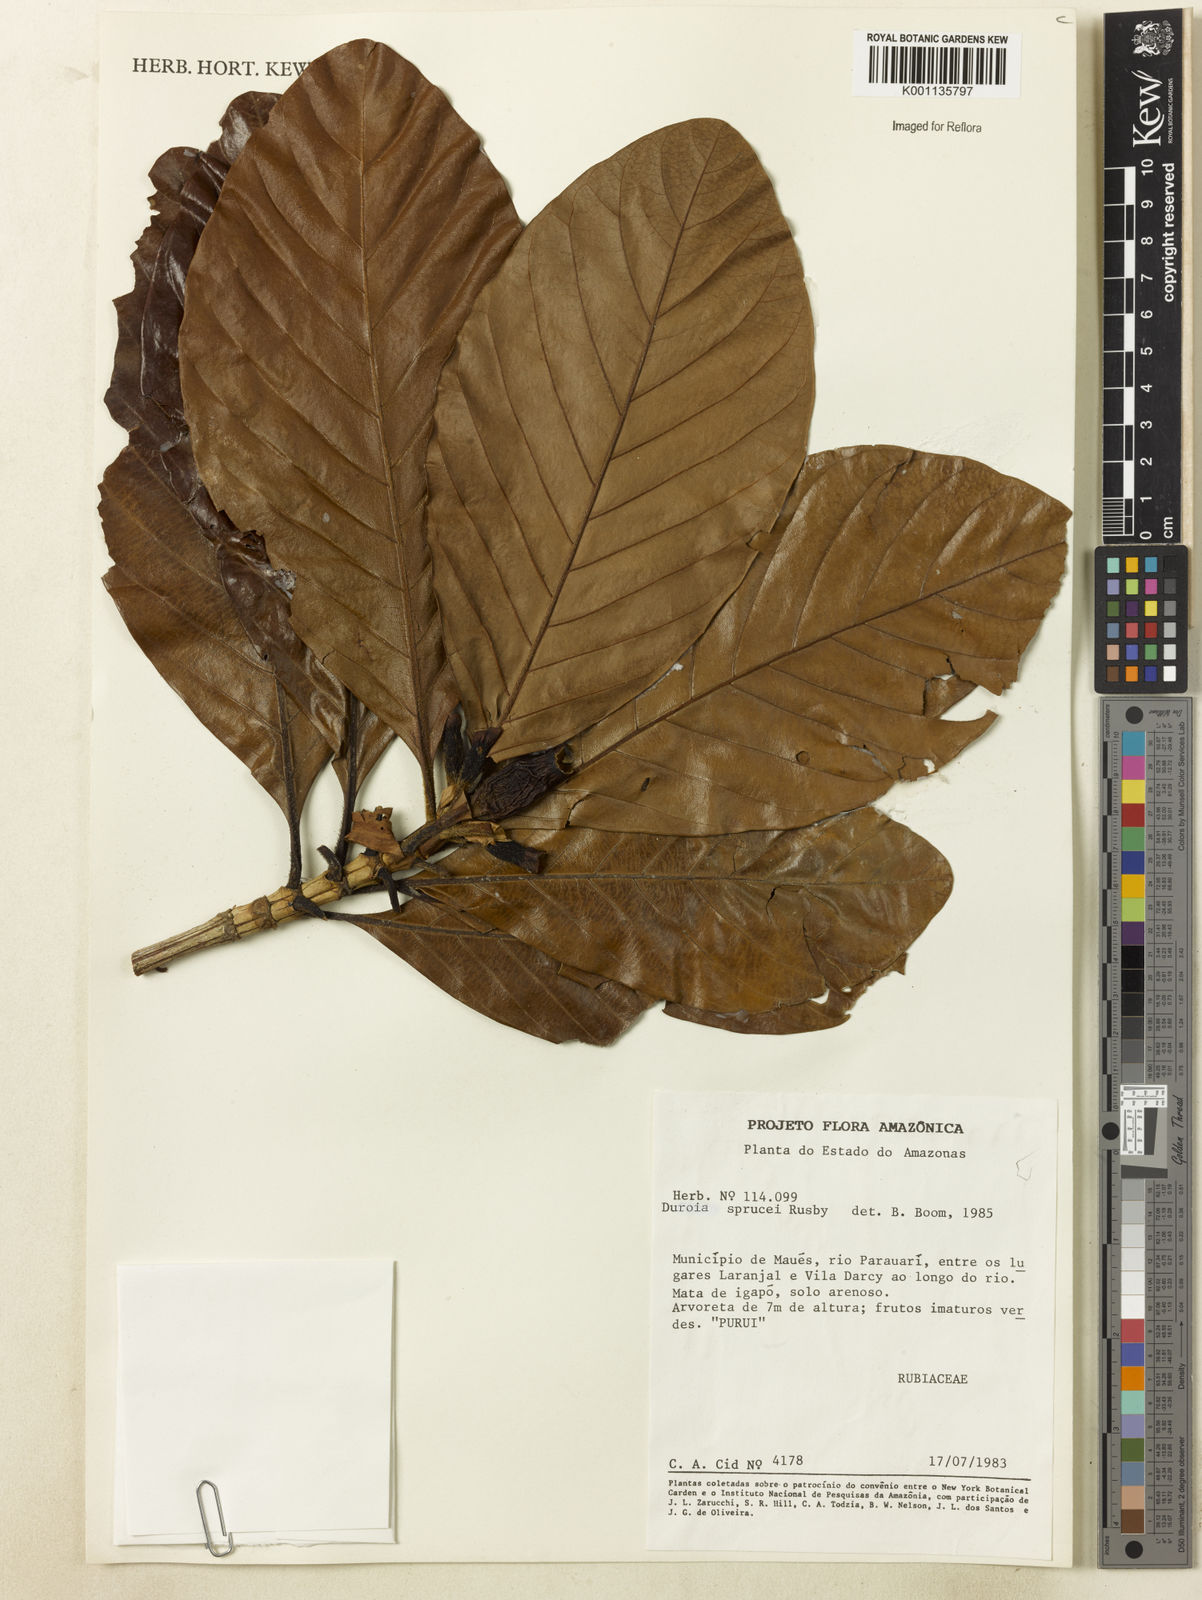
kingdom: Plantae
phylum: Tracheophyta
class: Magnoliopsida
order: Gentianales
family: Rubiaceae
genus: Duroia
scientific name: Duroia micrantha
